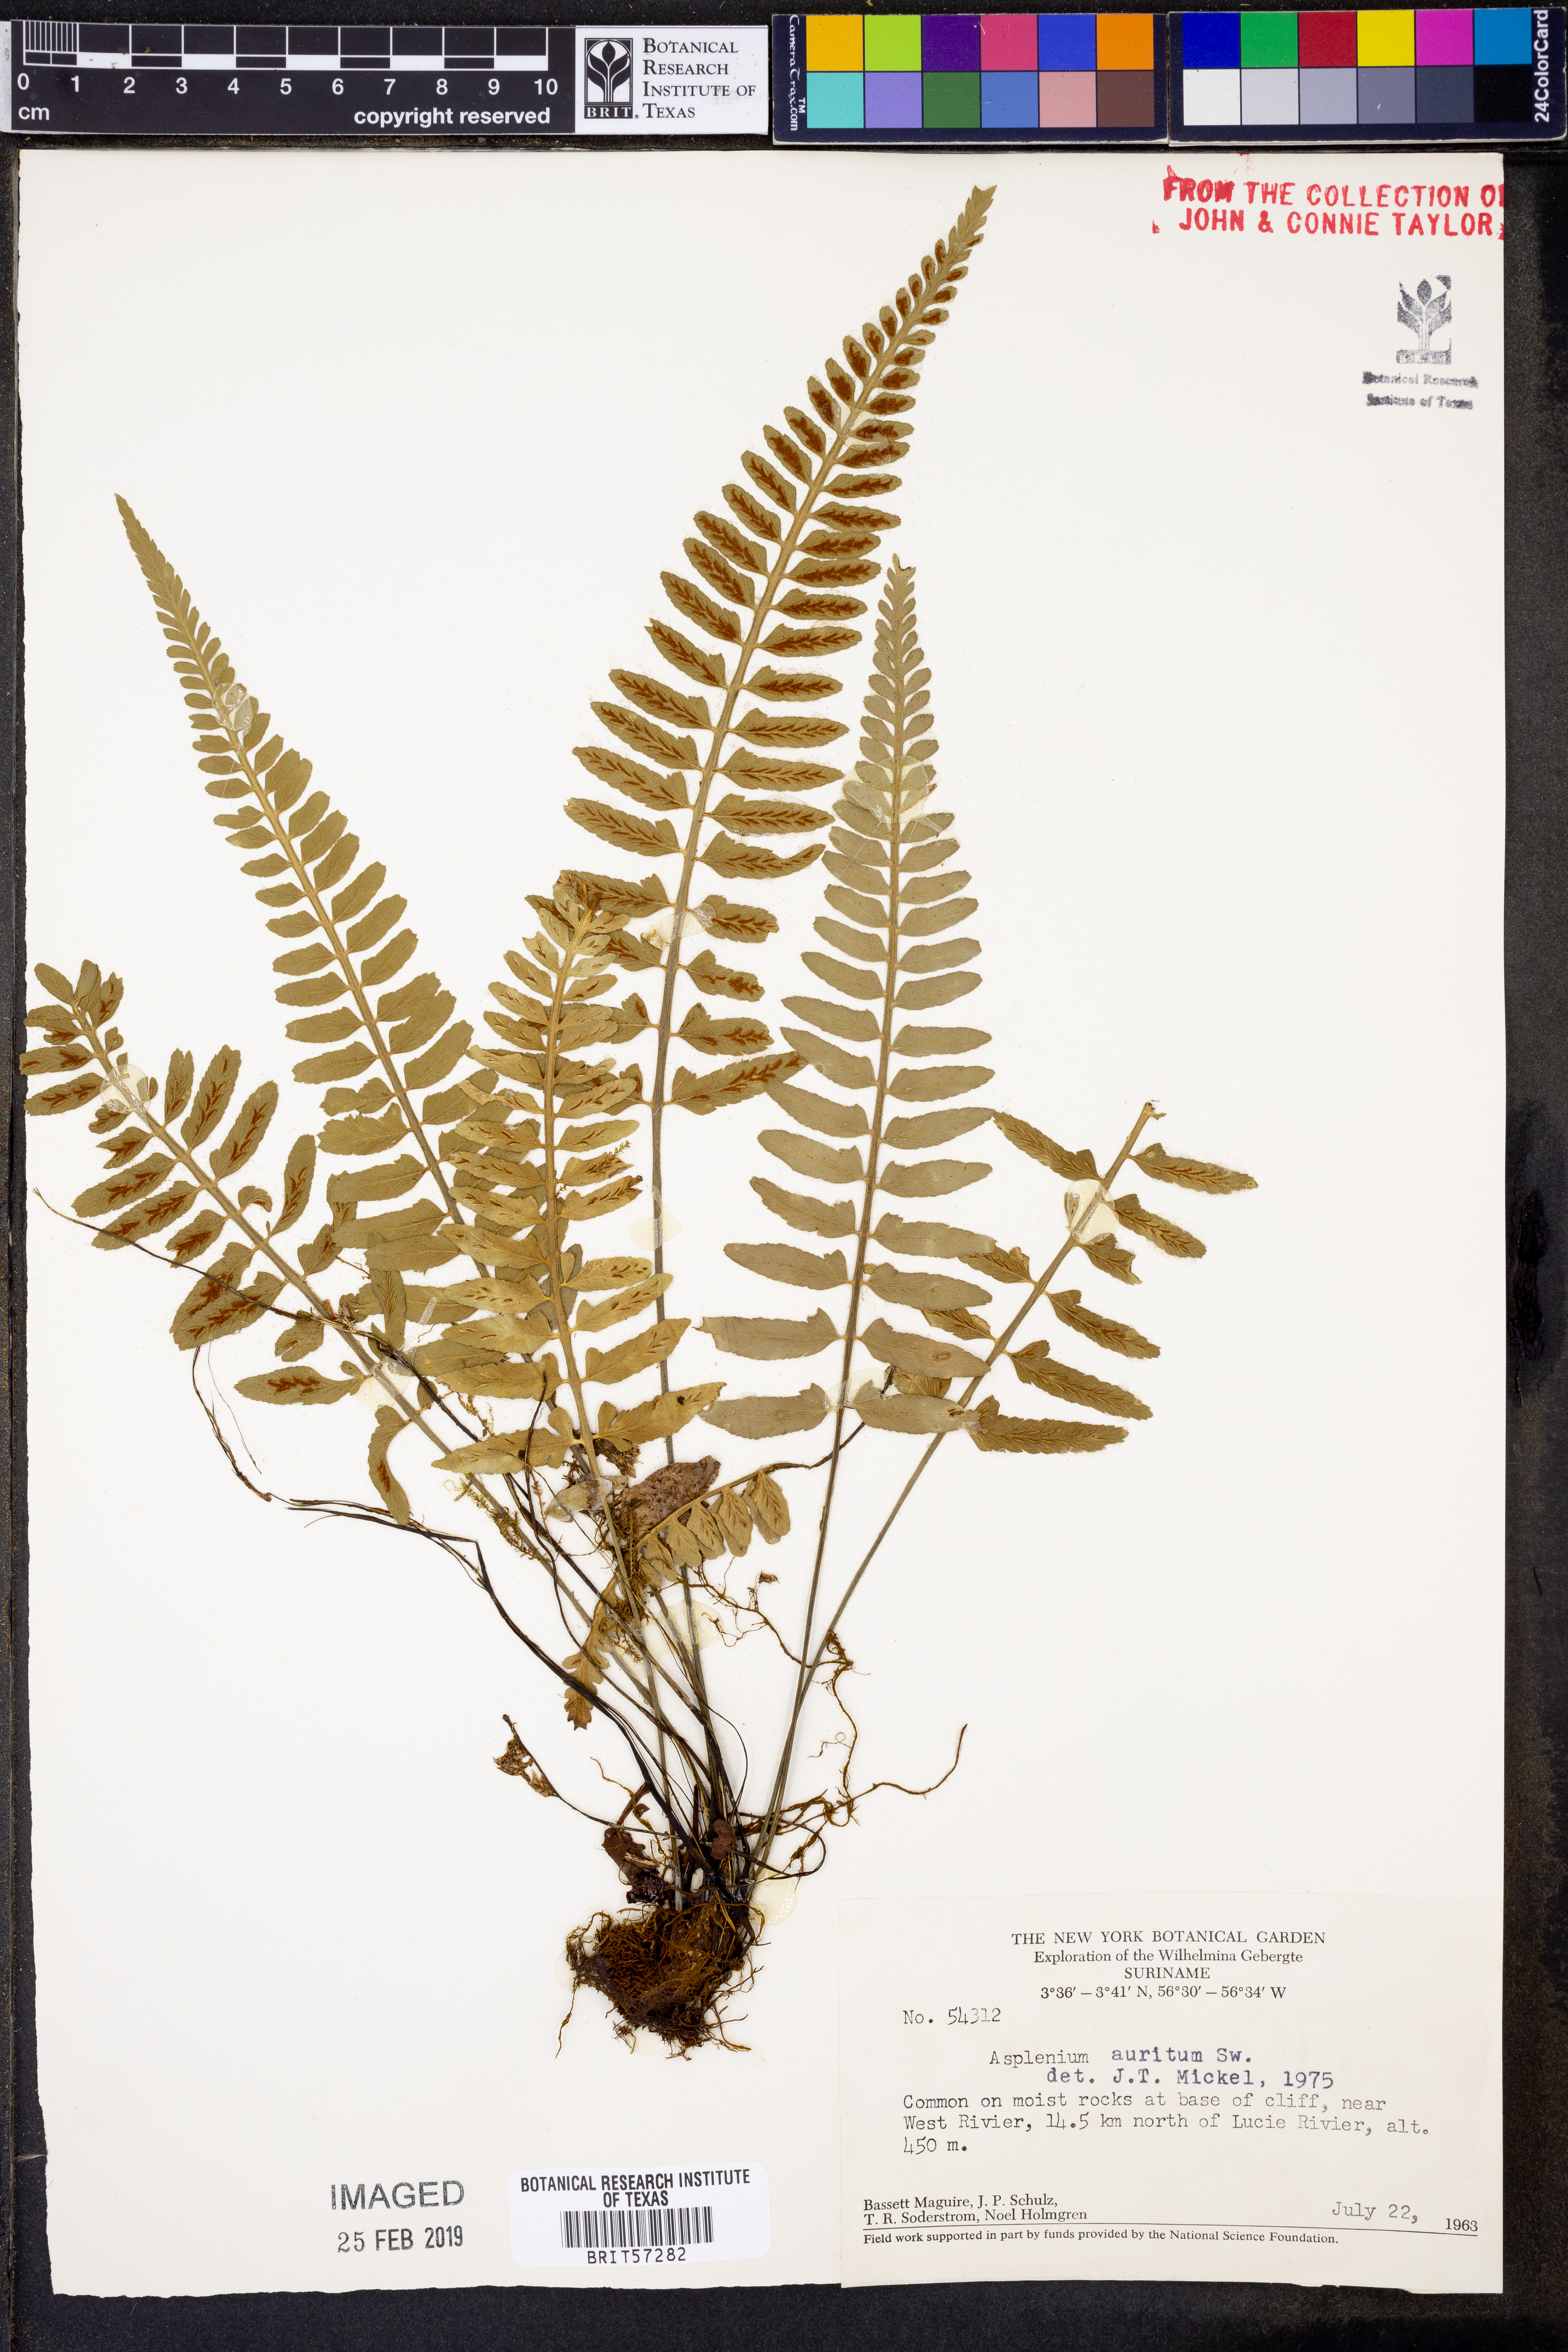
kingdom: Plantae
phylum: Tracheophyta
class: Polypodiopsida
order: Polypodiales
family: Aspleniaceae
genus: Asplenium
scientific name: Asplenium bipartitum
